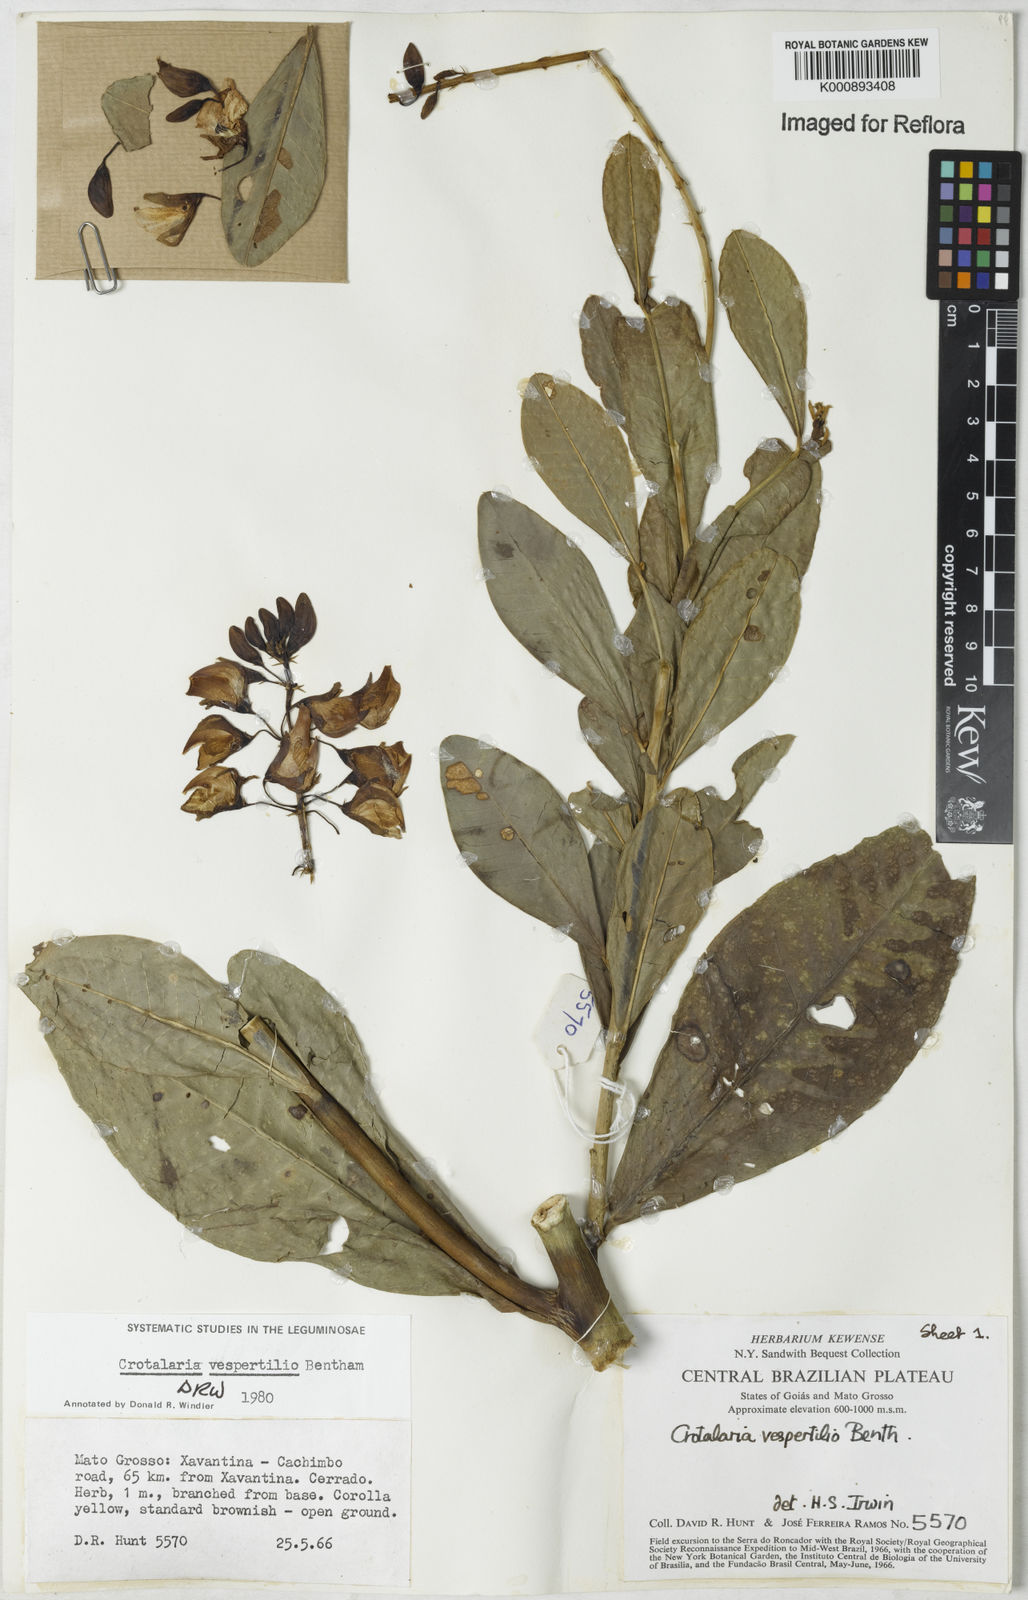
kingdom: Plantae
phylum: Tracheophyta
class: Magnoliopsida
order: Fabales
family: Fabaceae
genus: Crotalaria
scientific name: Crotalaria vespertilio
